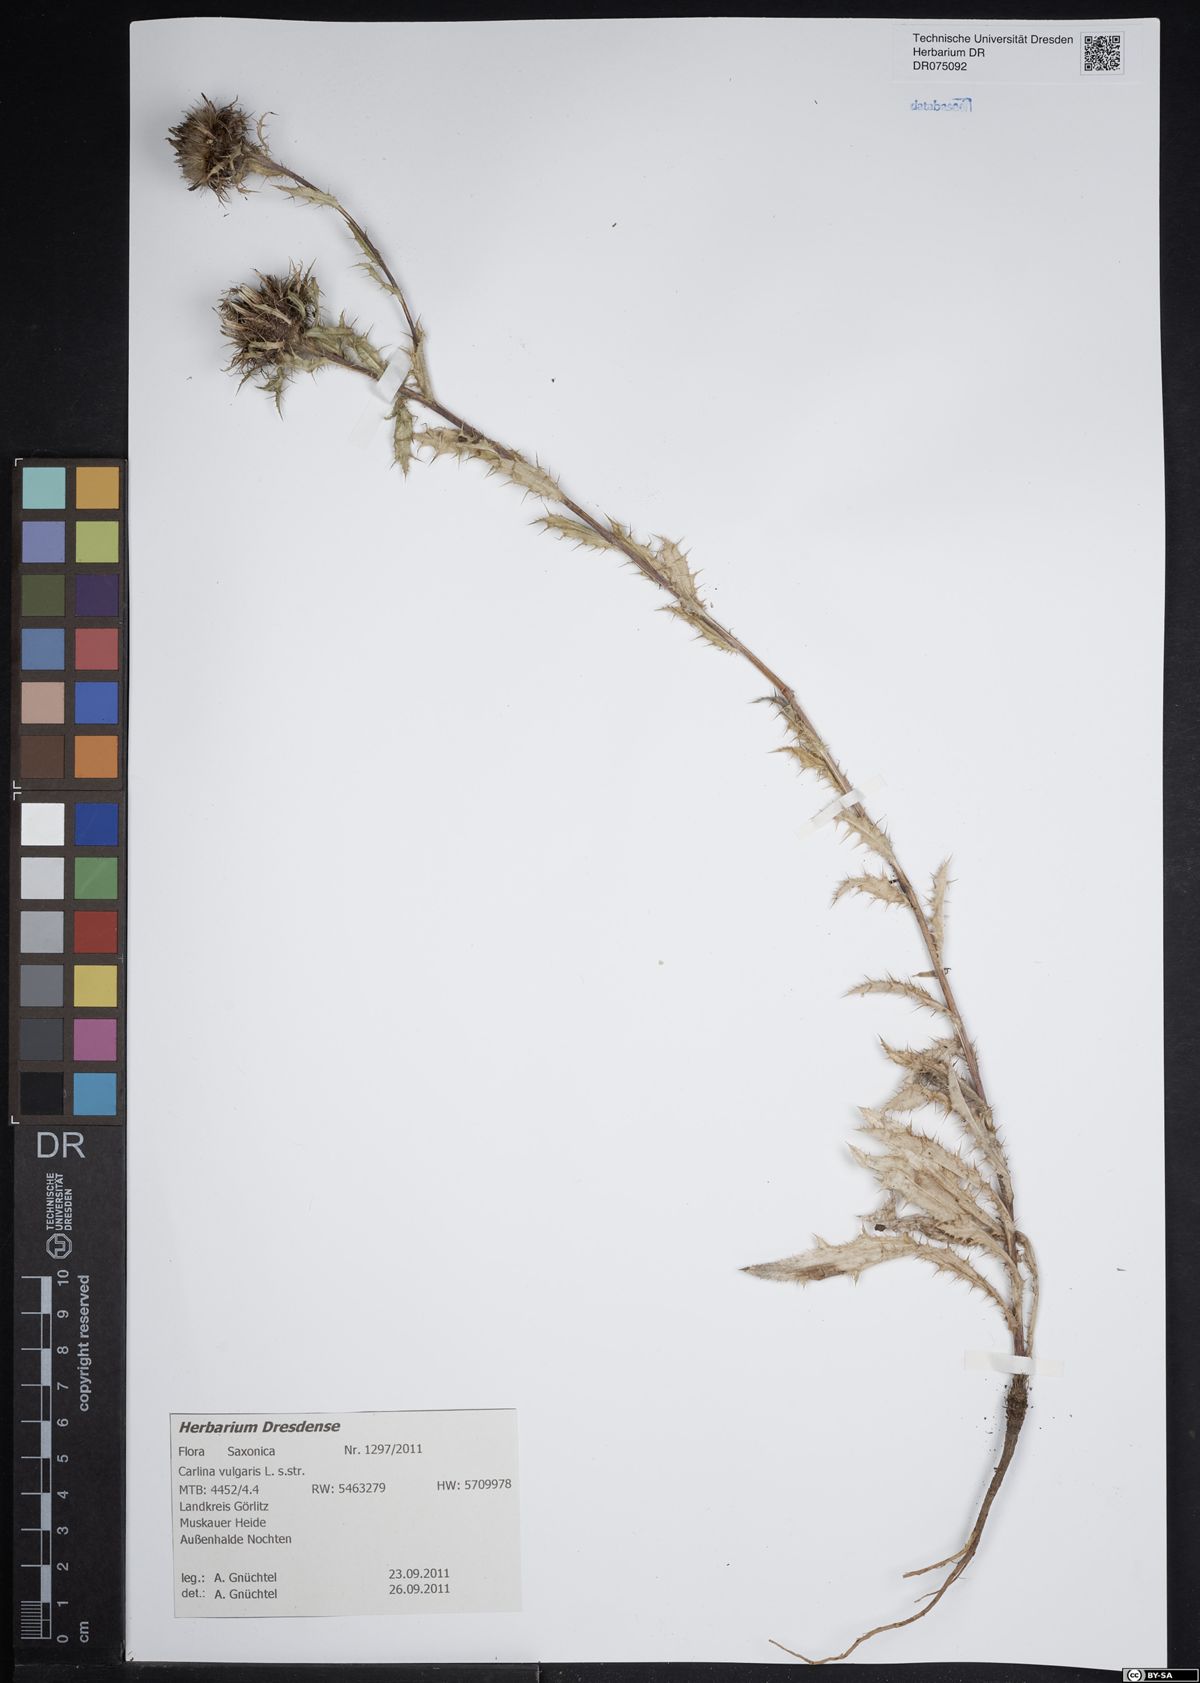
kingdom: Plantae
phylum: Tracheophyta
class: Magnoliopsida
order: Asterales
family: Asteraceae
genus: Carlina
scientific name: Carlina vulgaris
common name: Carline thistle
